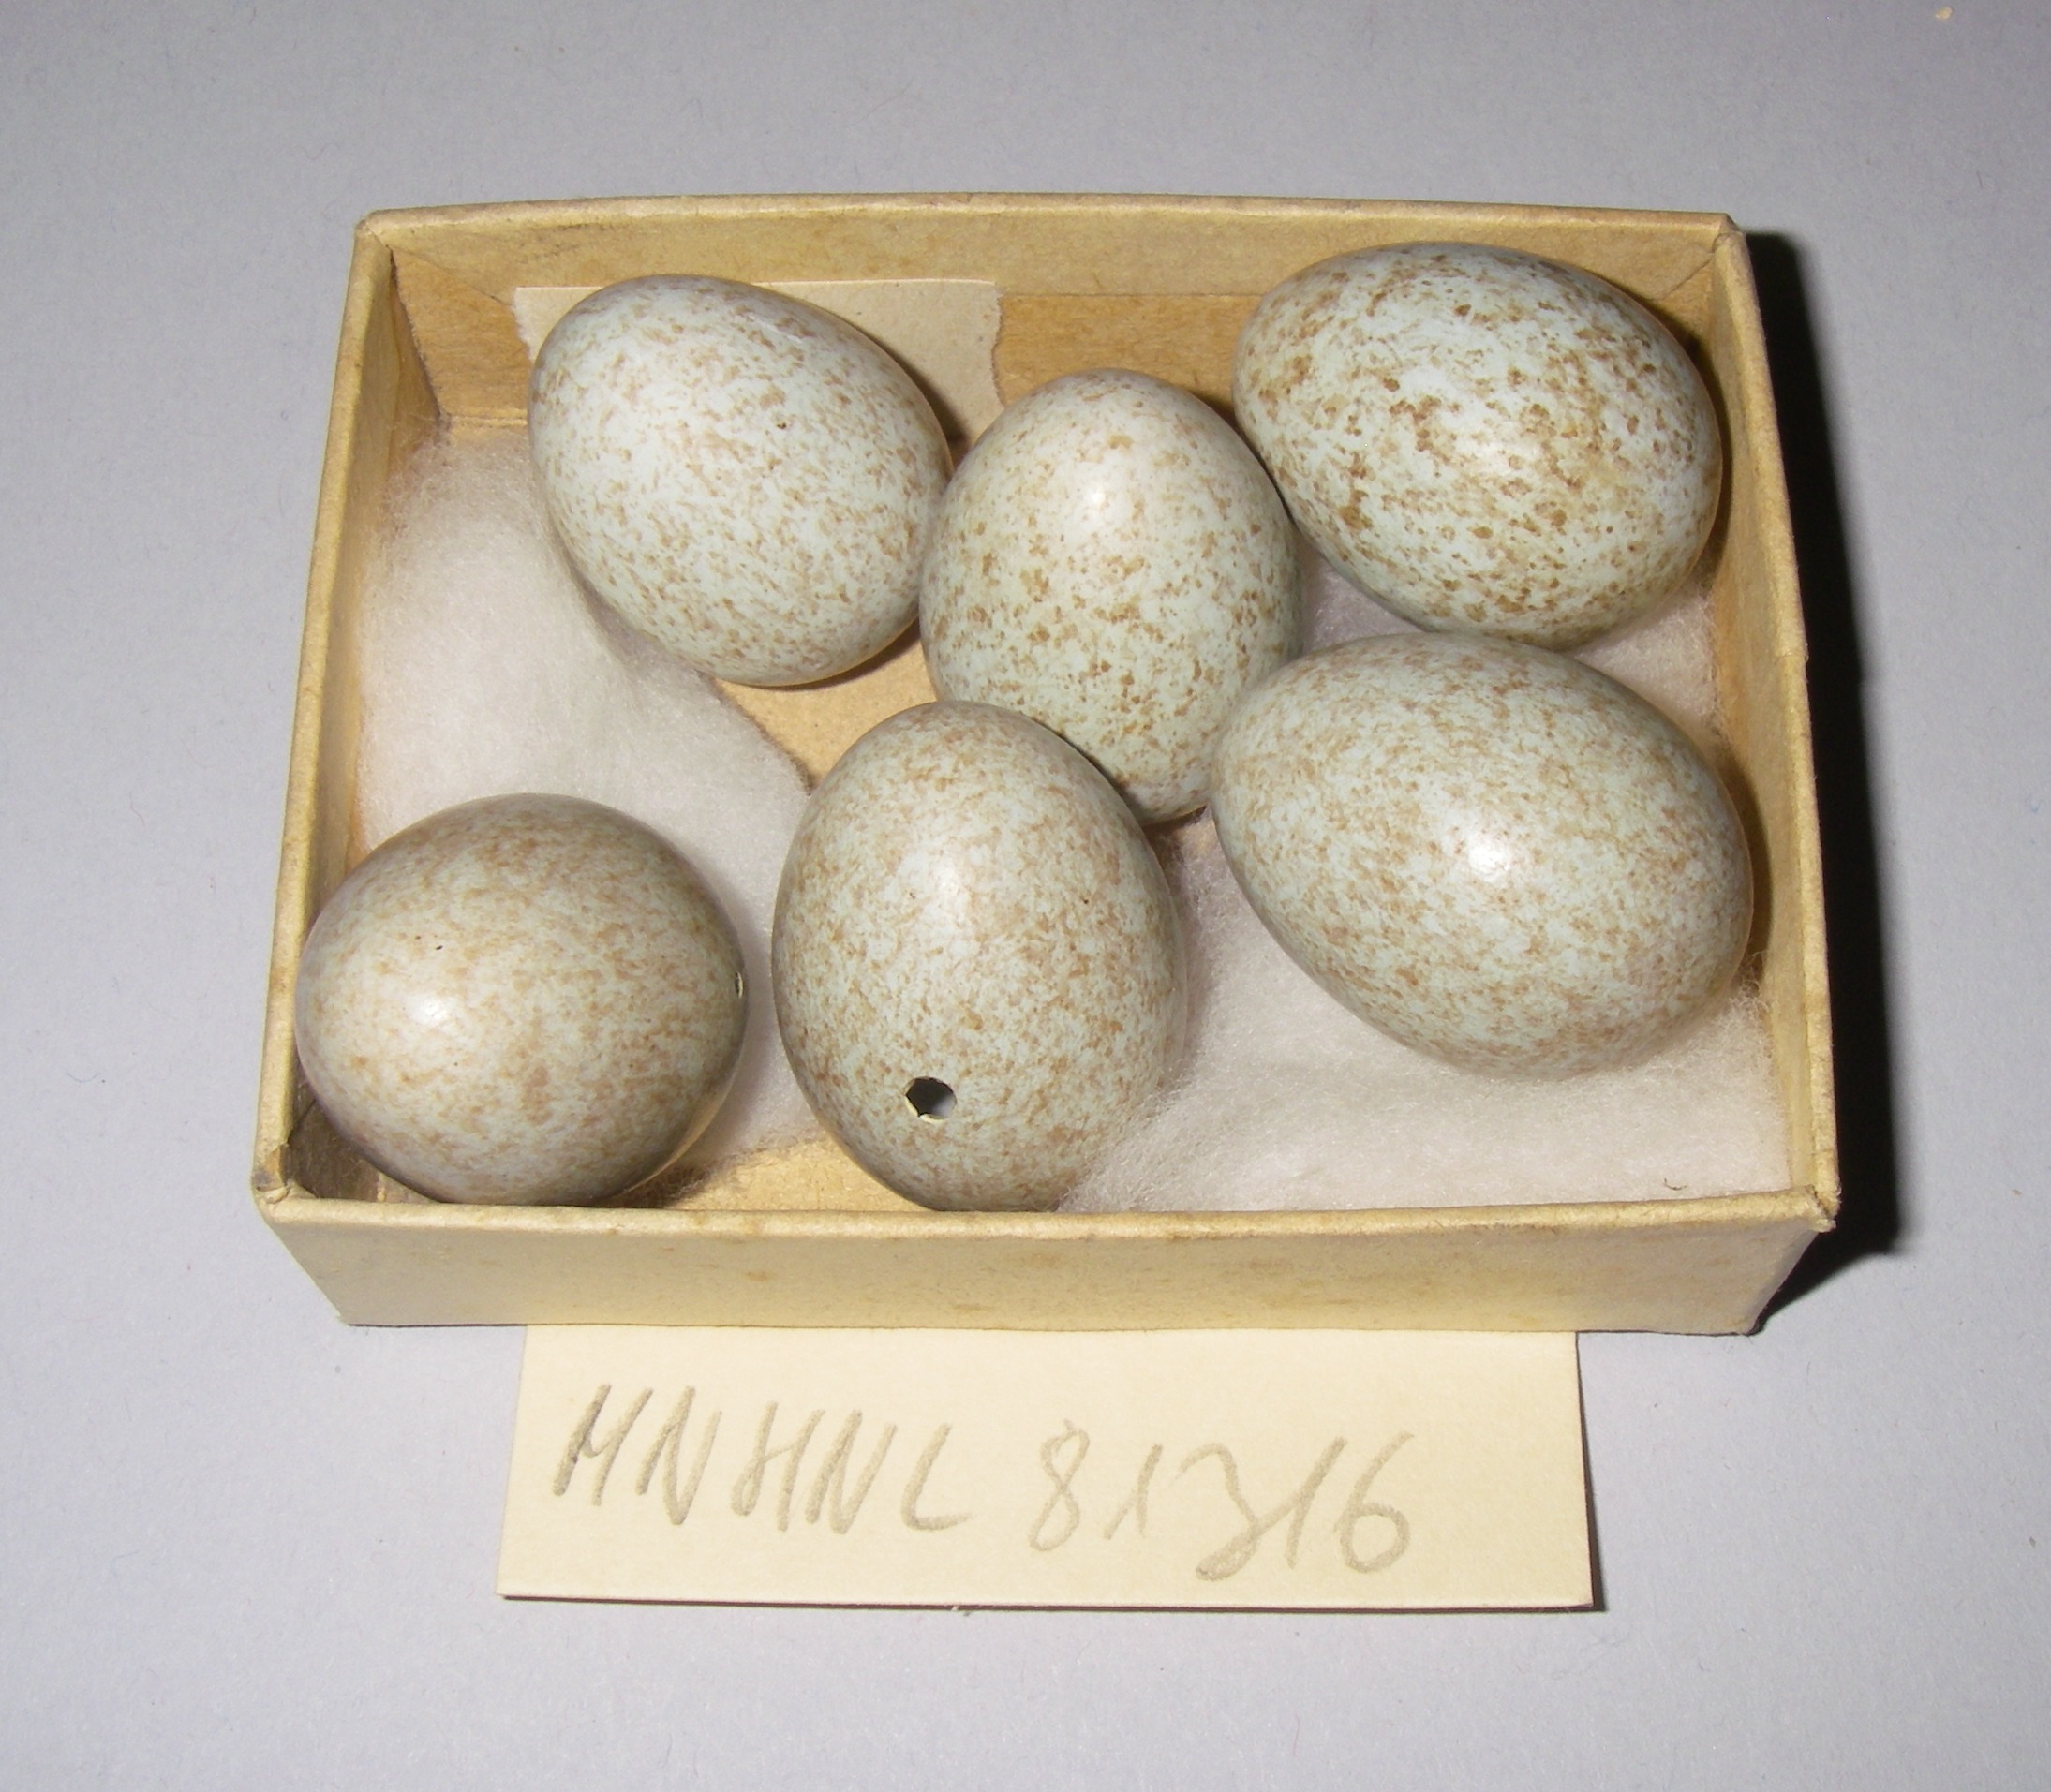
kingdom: Animalia
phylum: Chordata
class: Aves
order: Passeriformes
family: Turdidae
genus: Turdus
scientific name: Turdus merula
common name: Common blackbird
